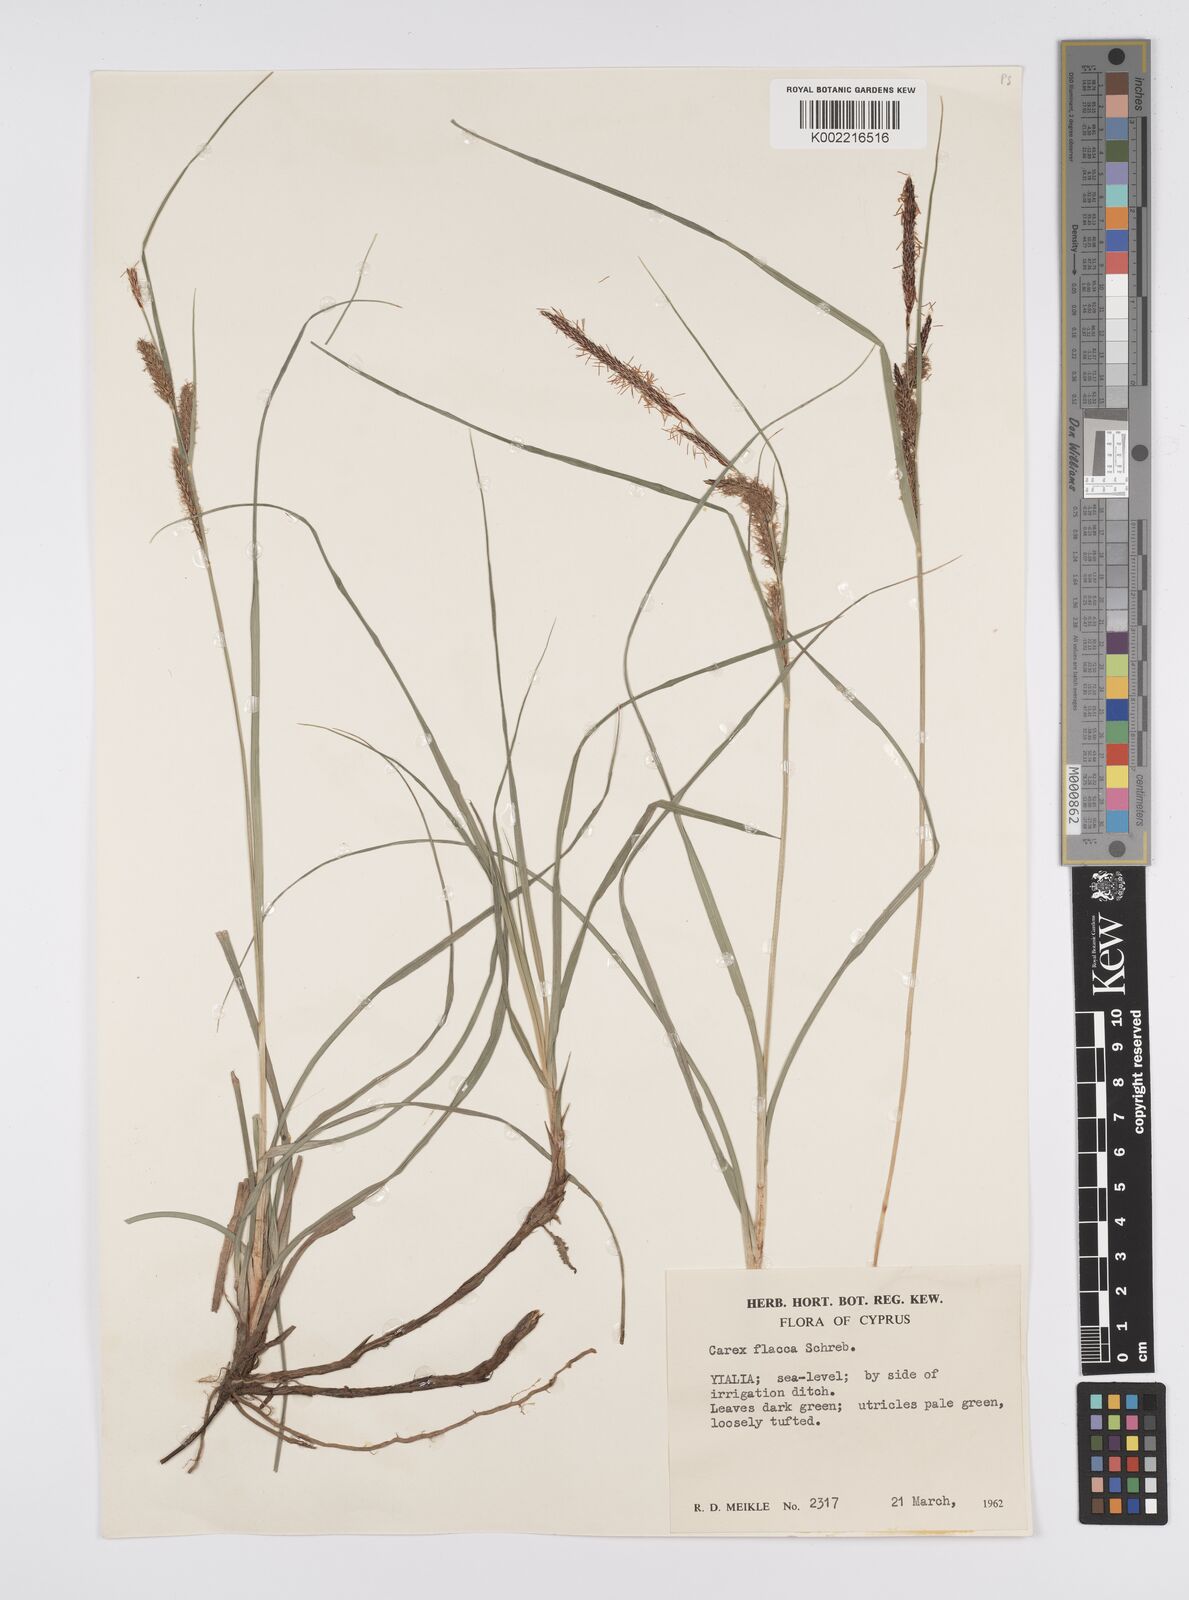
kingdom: Plantae
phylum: Tracheophyta
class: Liliopsida
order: Poales
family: Cyperaceae
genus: Carex
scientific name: Carex flacca
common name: Glaucous sedge
